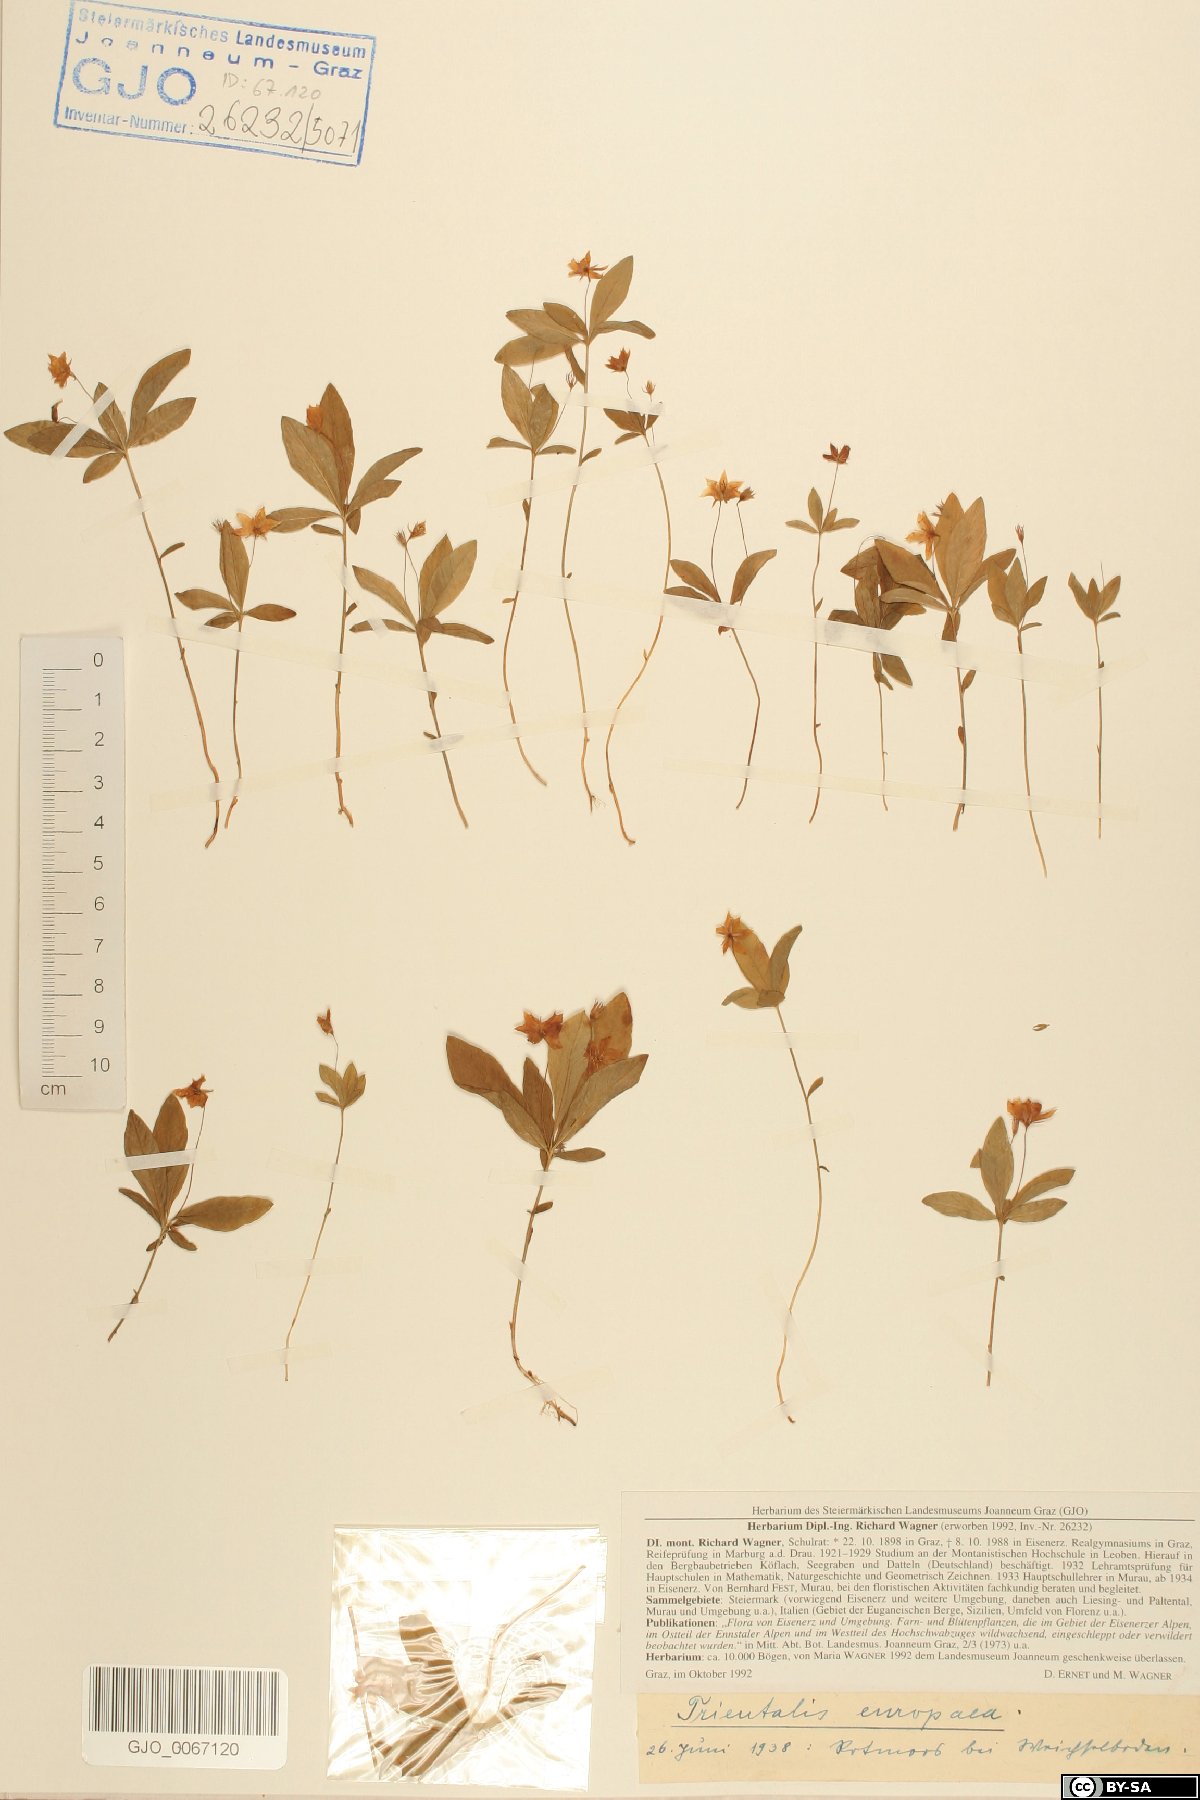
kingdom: Plantae
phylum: Tracheophyta
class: Magnoliopsida
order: Ericales
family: Primulaceae
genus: Lysimachia
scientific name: Lysimachia europaea
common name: Arctic starflower
